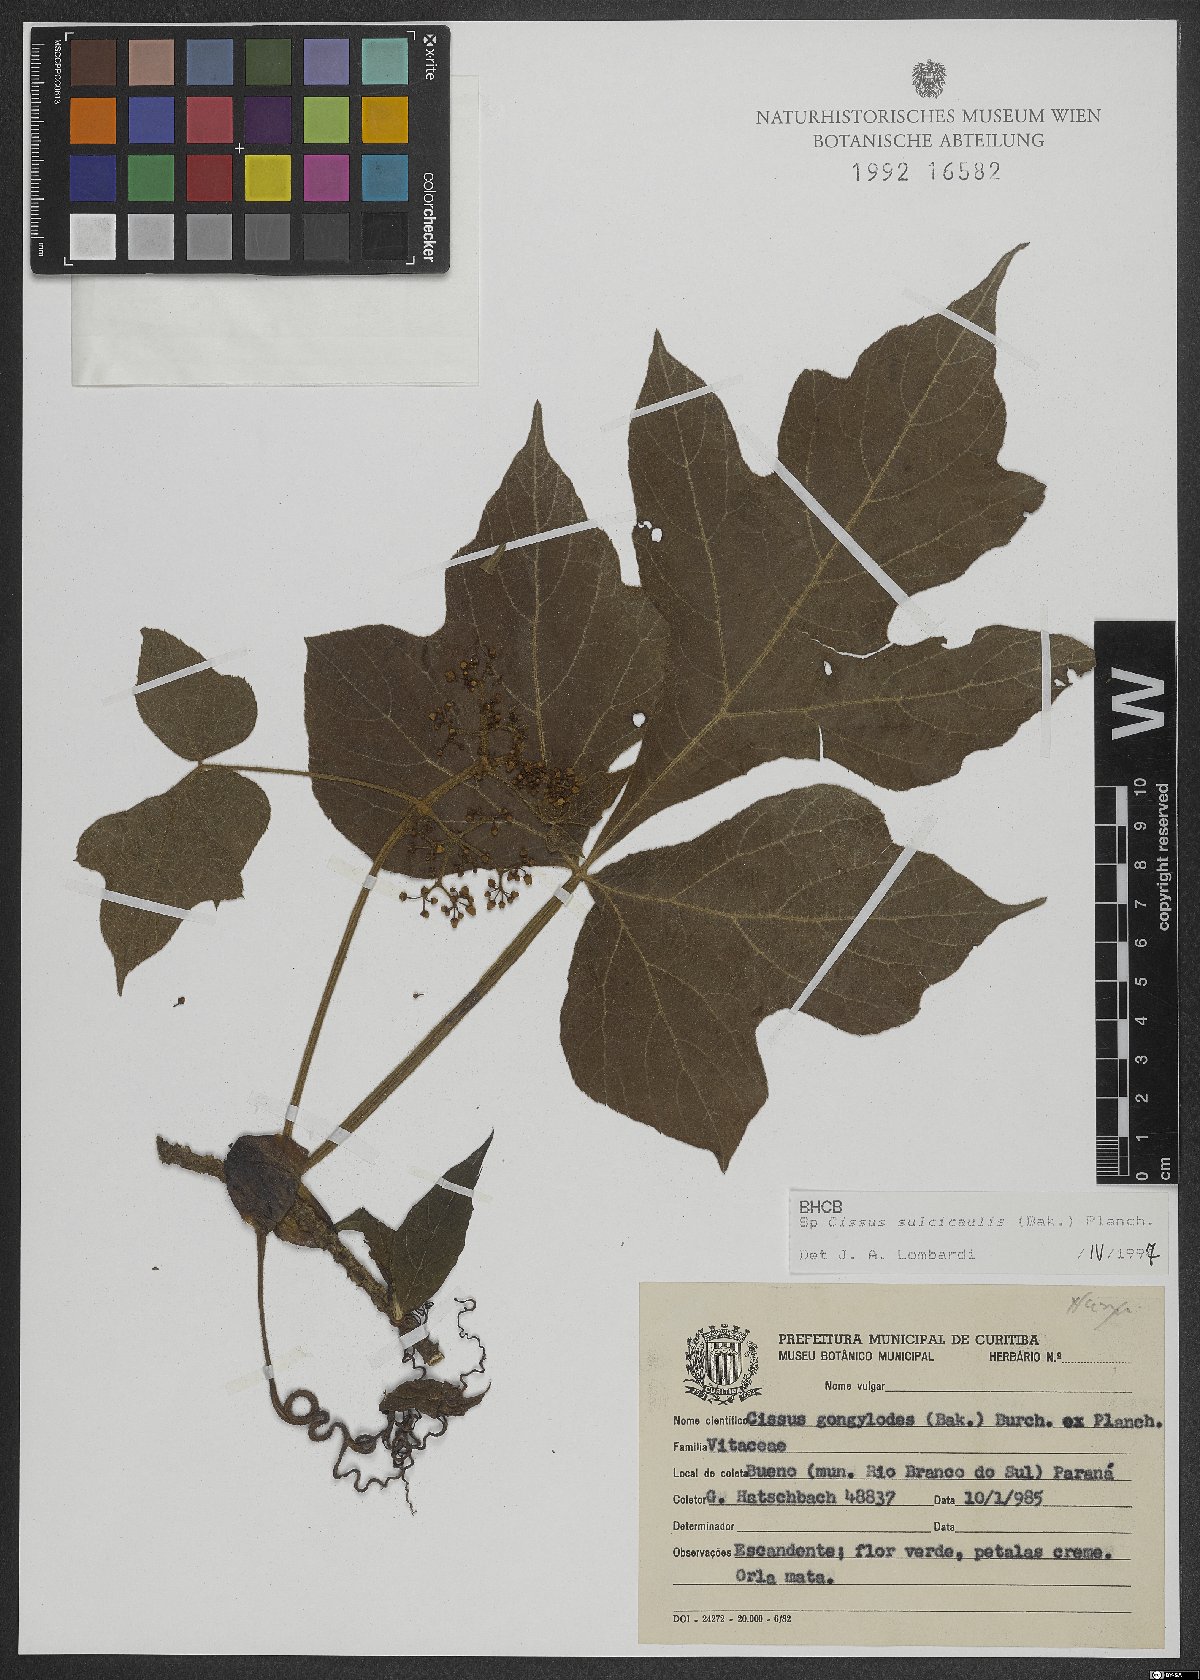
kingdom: Plantae
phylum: Tracheophyta
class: Magnoliopsida
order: Vitales
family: Vitaceae
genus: Cissus
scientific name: Cissus sulcicaulis
